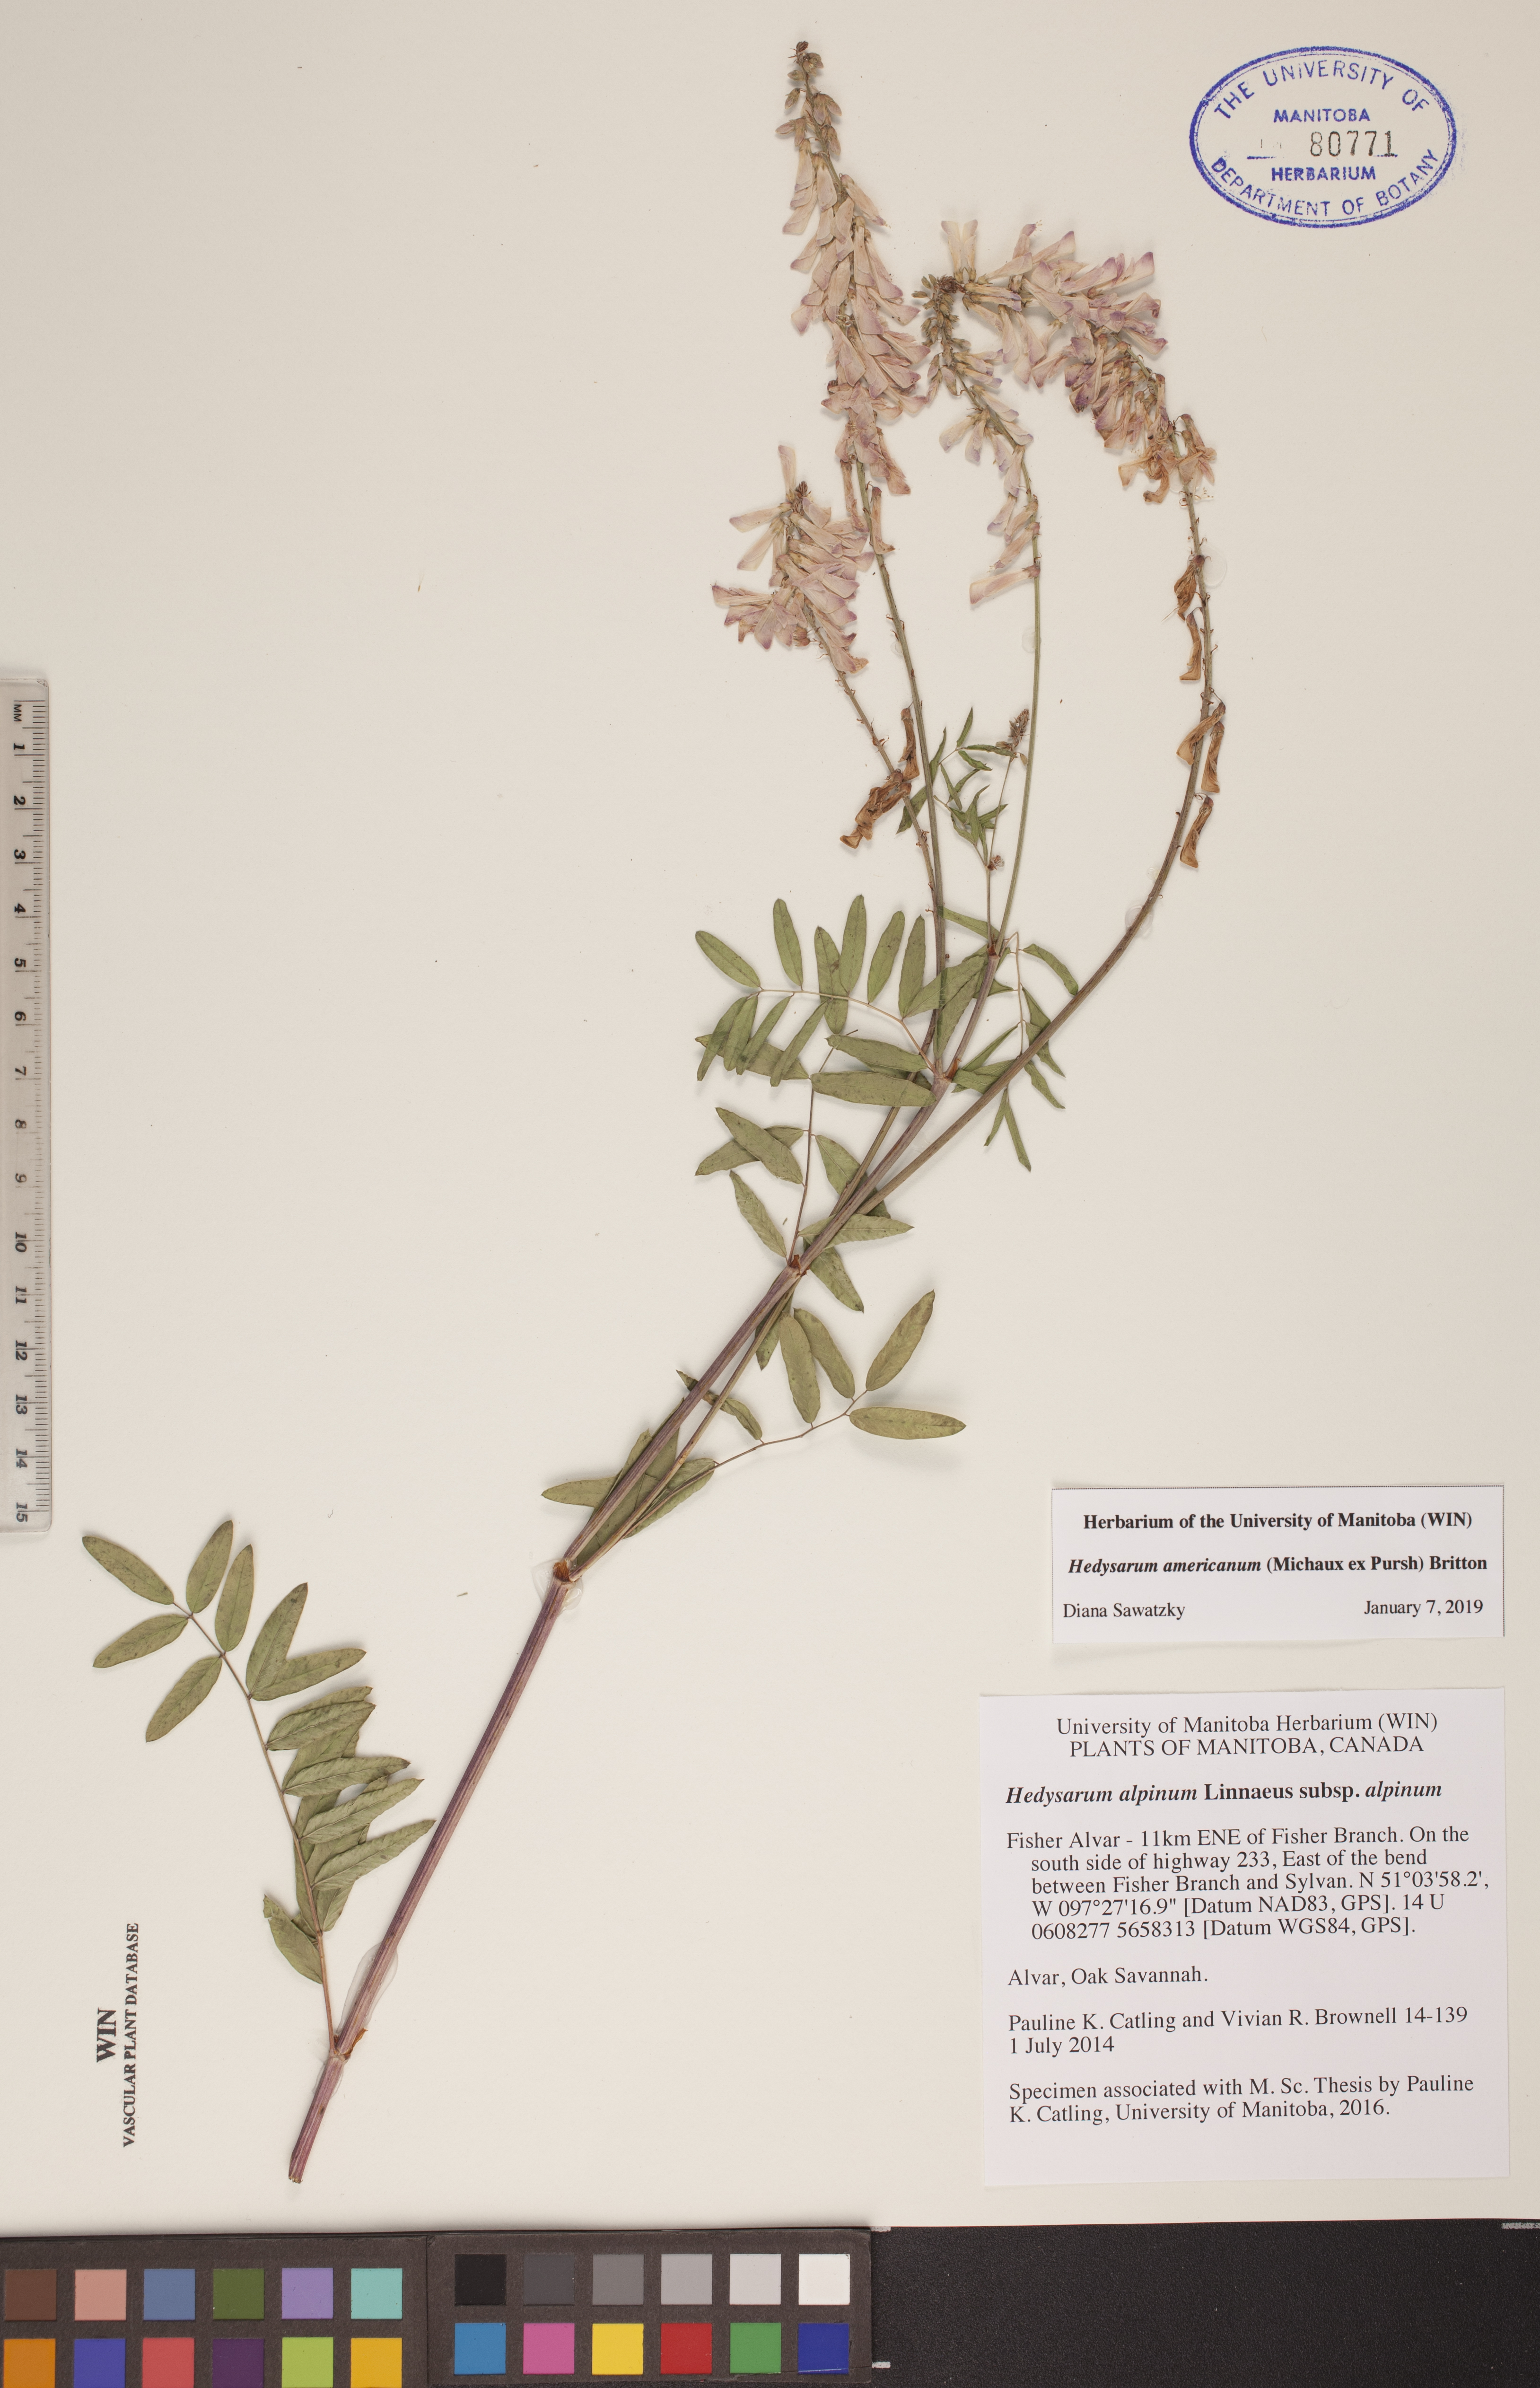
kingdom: Plantae
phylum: Tracheophyta
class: Magnoliopsida
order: Fabales
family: Fabaceae
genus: Hedysarum
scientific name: Hedysarum americanum
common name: Alpine hedysarum
